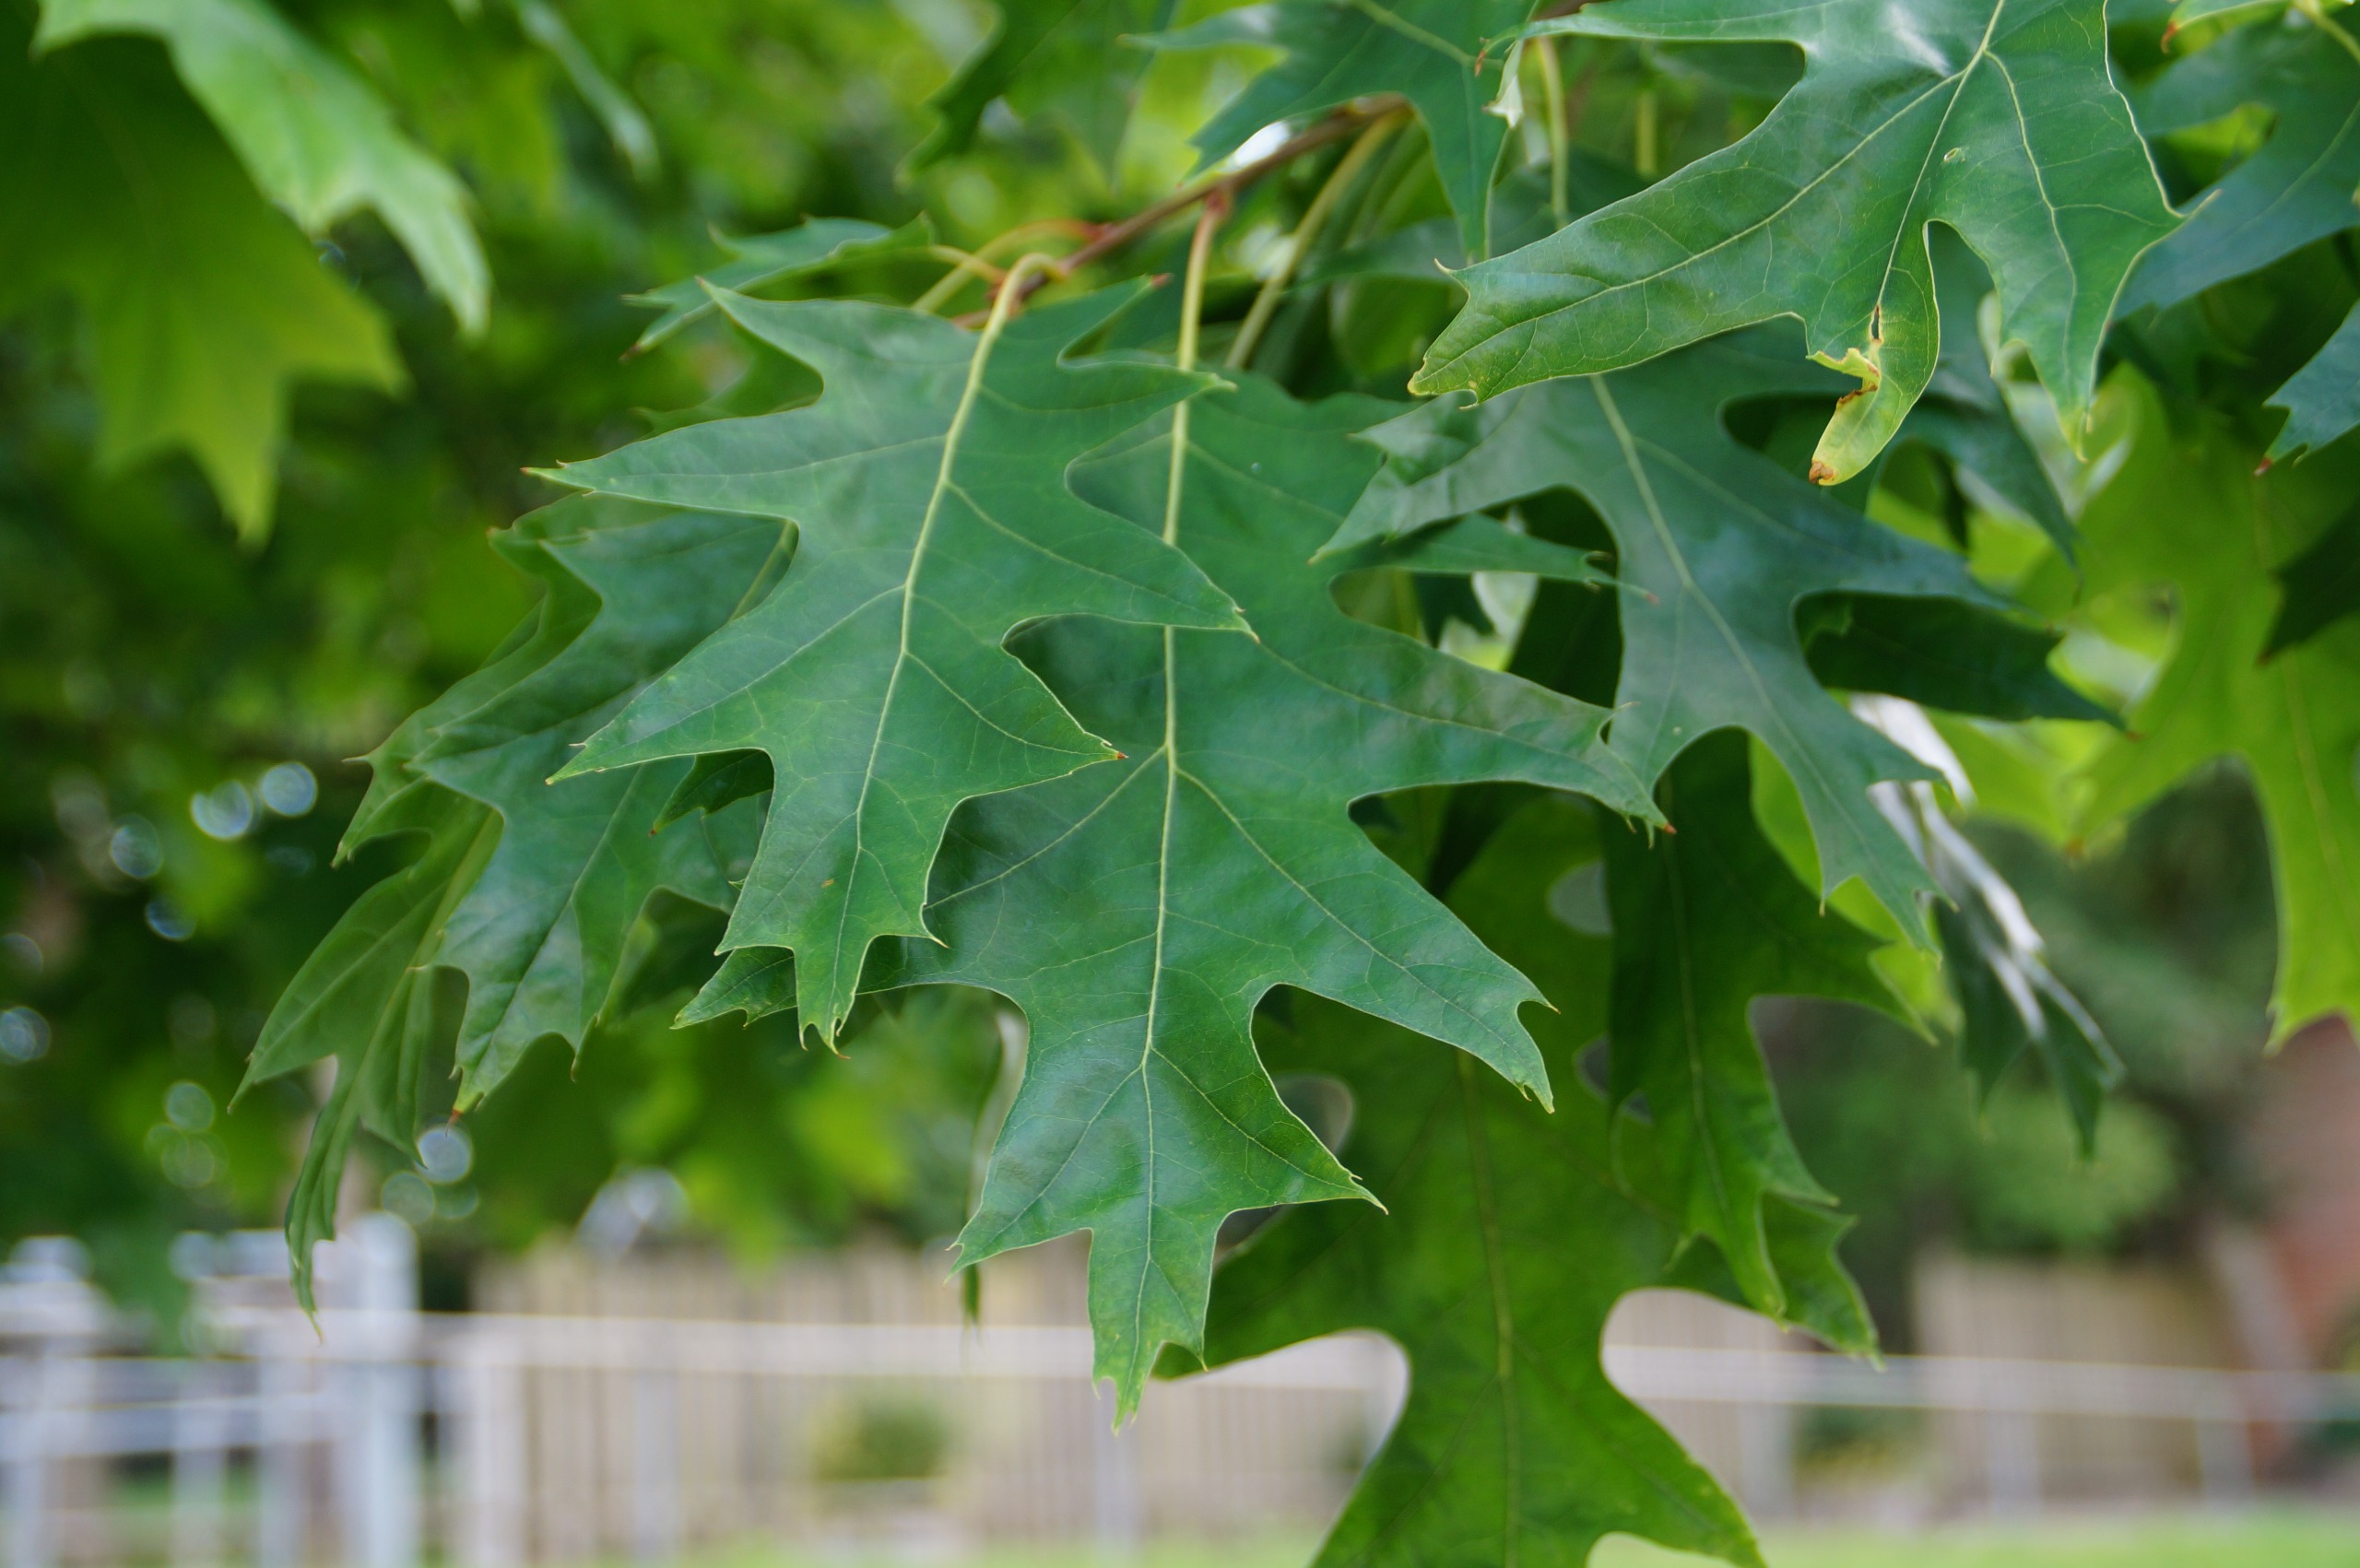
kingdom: Plantae
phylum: Tracheophyta
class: Magnoliopsida
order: Fagales
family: Fagaceae
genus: Quercus
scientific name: Quercus rubra
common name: Rød-eg
